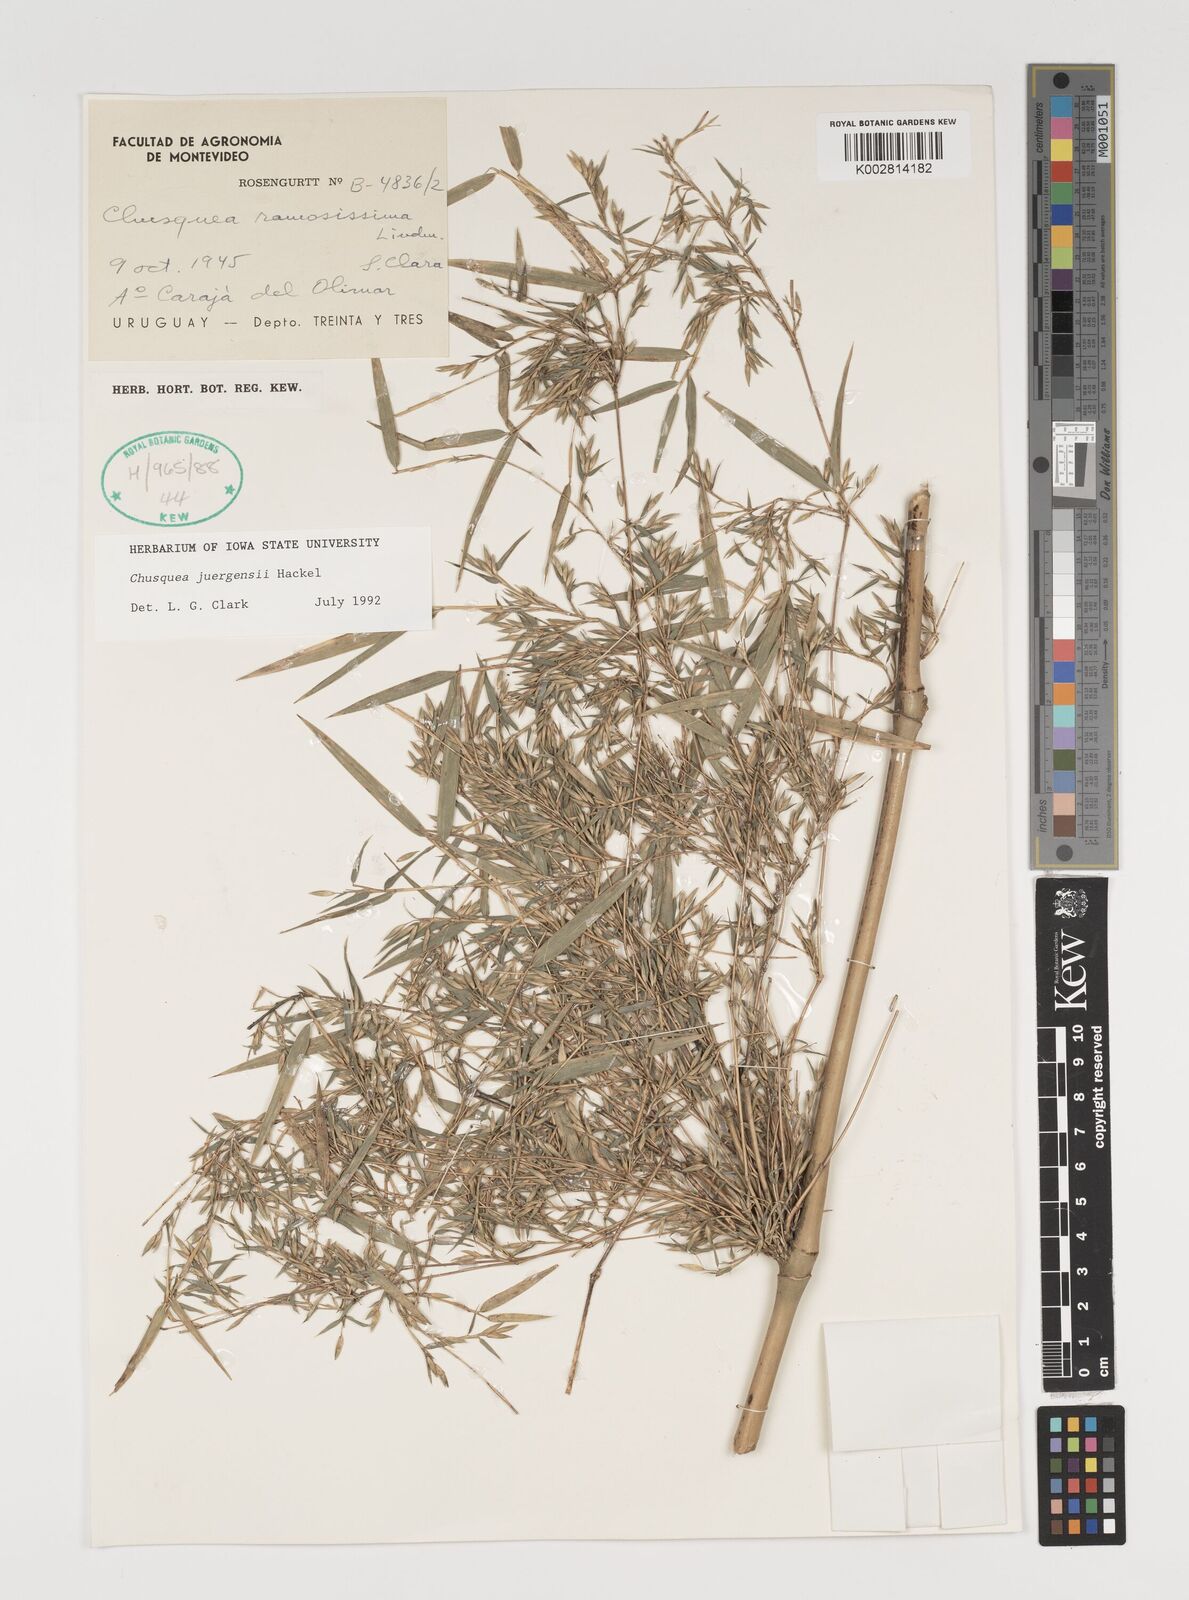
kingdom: Plantae
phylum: Tracheophyta
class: Liliopsida
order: Poales
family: Poaceae
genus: Chusquea
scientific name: Chusquea juergensii
